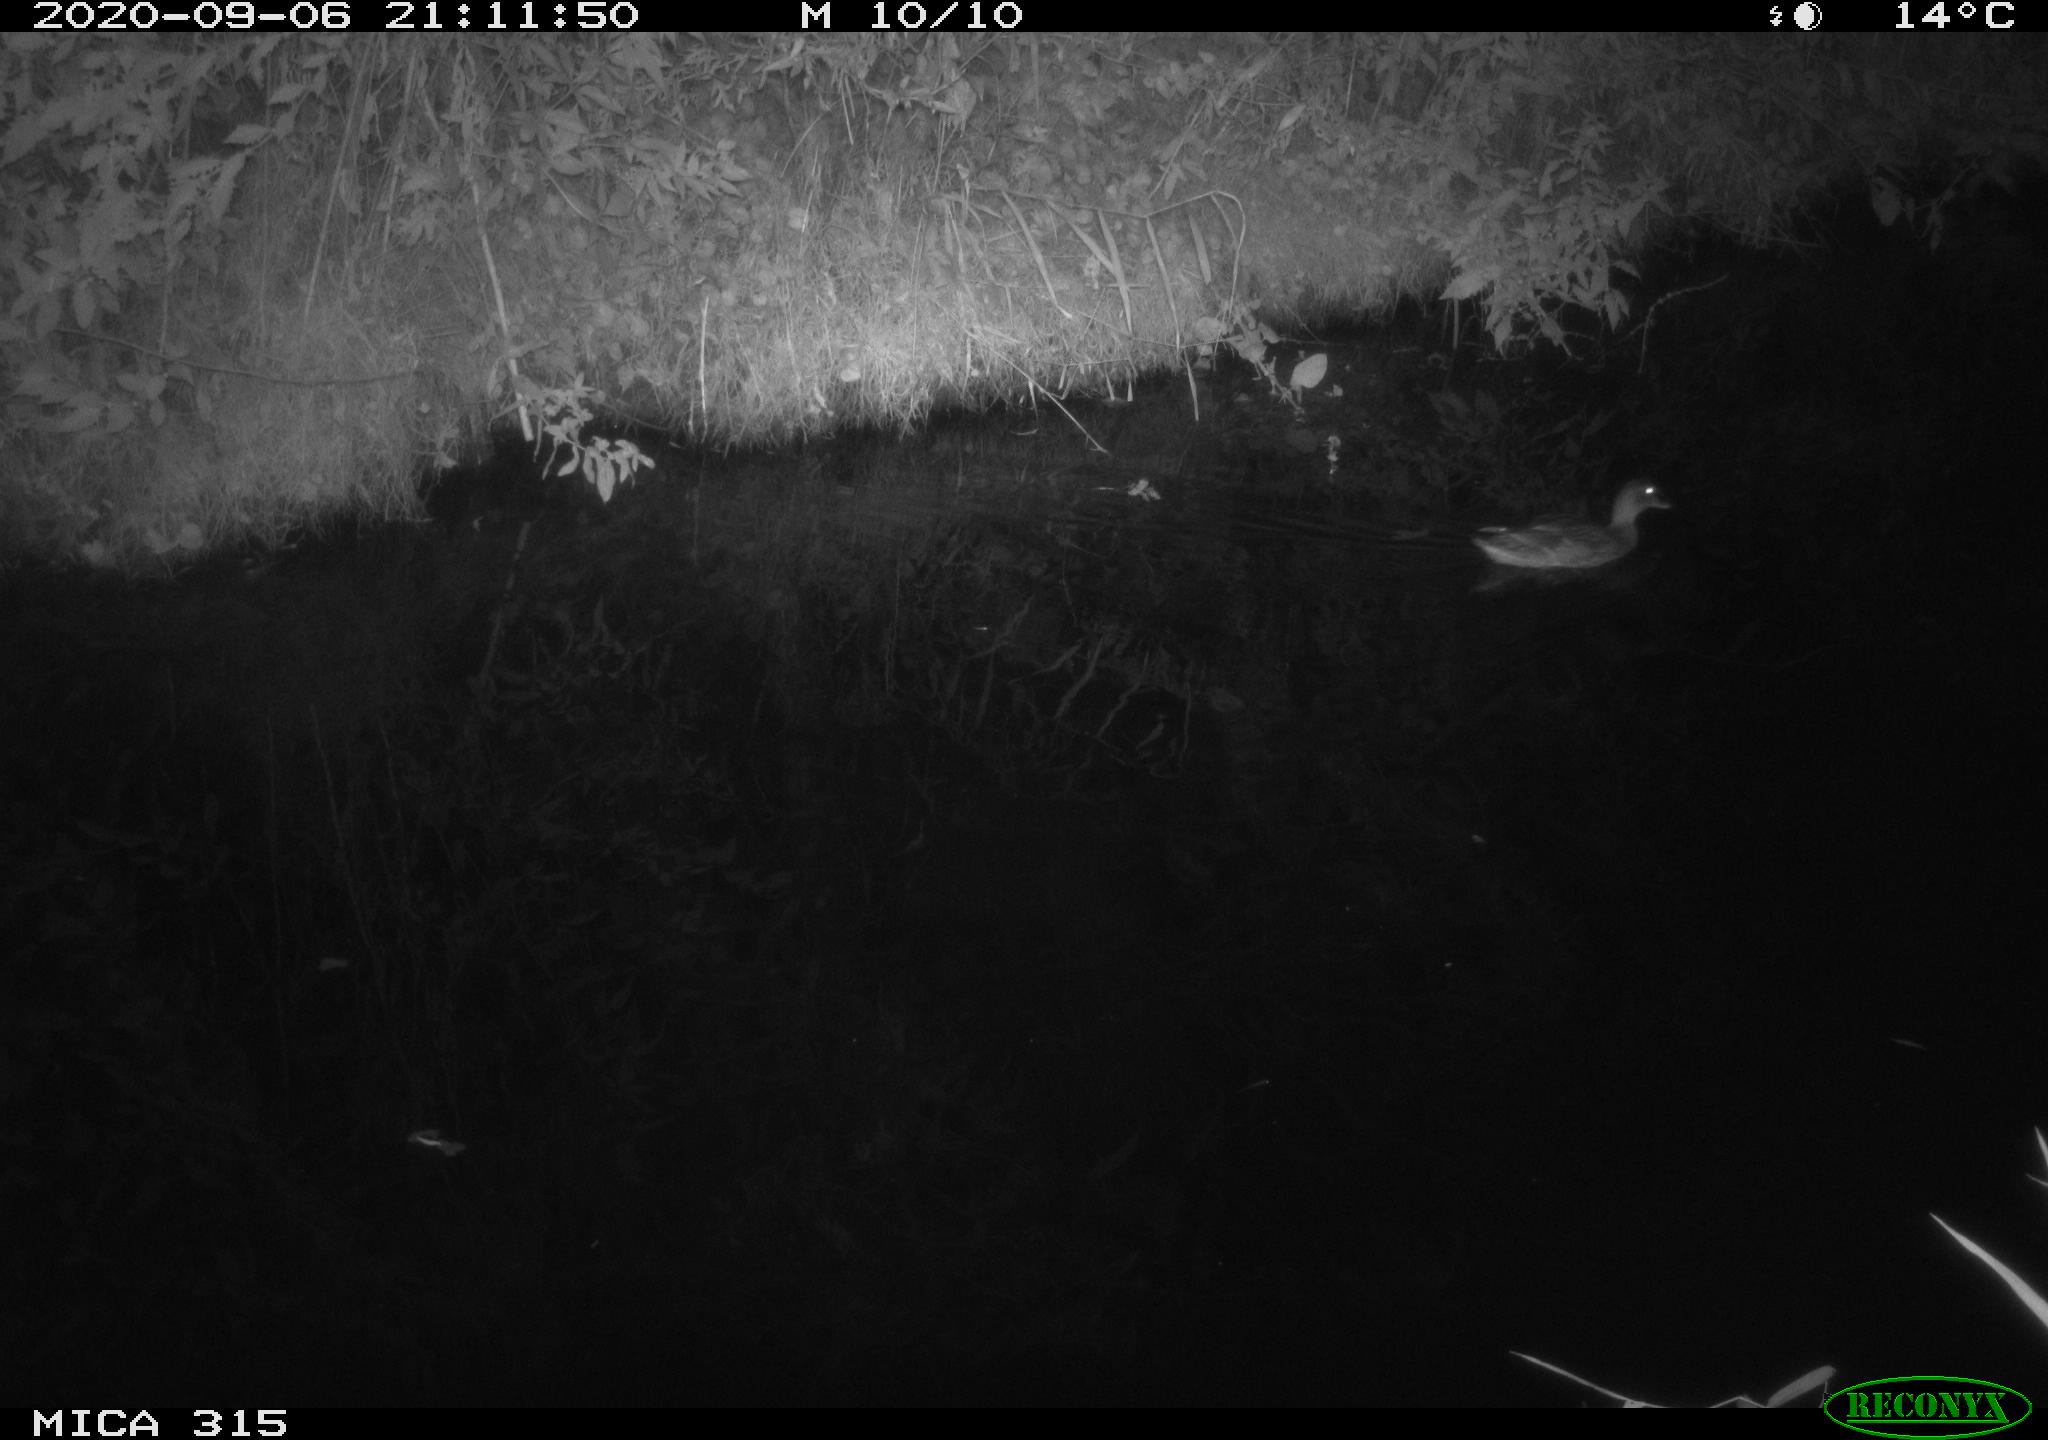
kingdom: Animalia
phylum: Chordata
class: Aves
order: Anseriformes
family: Anatidae
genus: Anas
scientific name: Anas platyrhynchos
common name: Mallard
